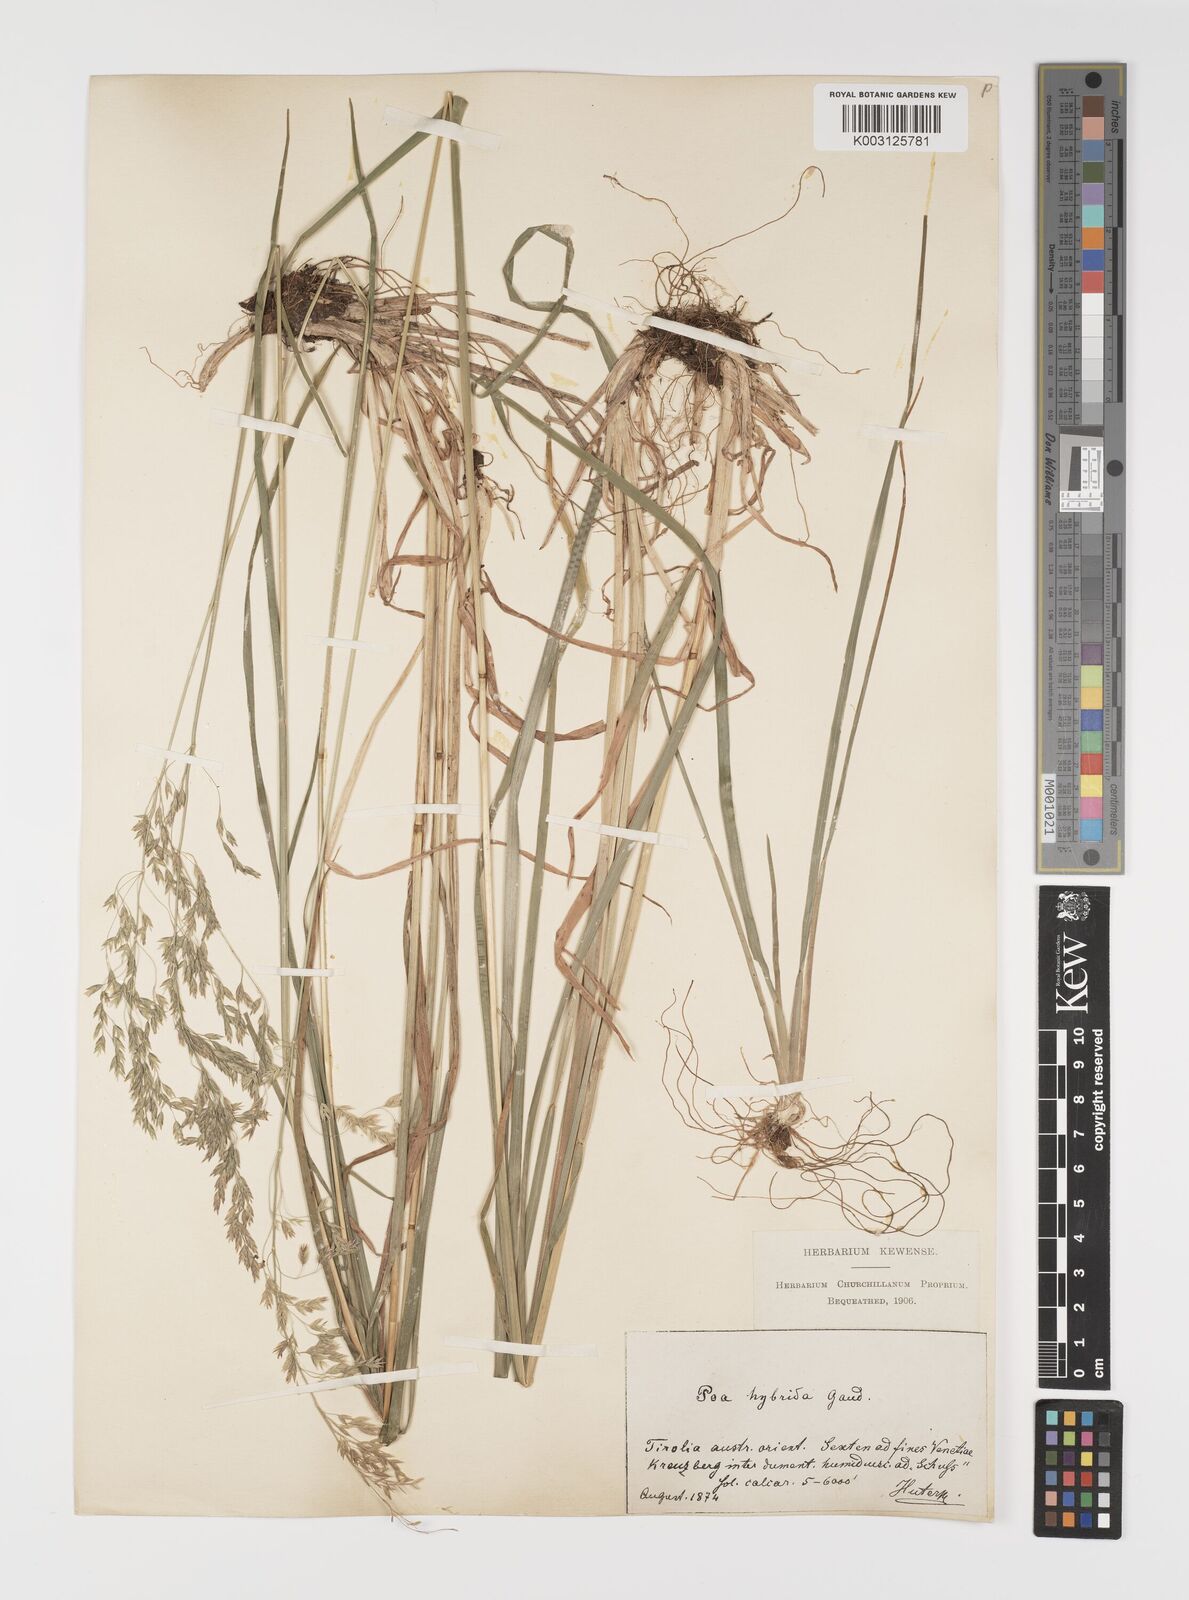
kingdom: Plantae
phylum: Tracheophyta
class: Liliopsida
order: Poales
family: Poaceae
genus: Poa
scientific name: Poa hybrida
